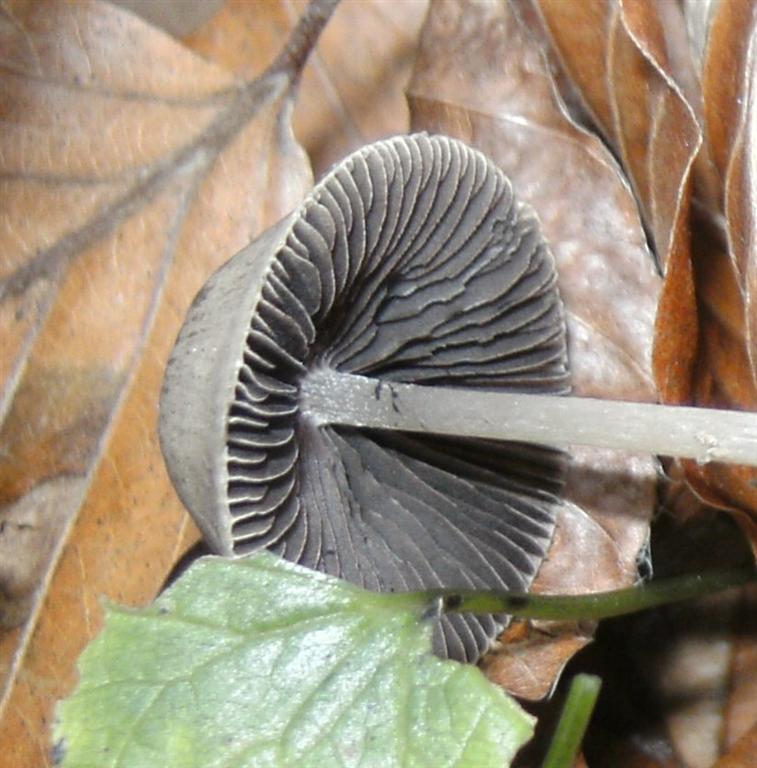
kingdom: Fungi
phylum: Basidiomycota
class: Agaricomycetes
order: Agaricales
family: Psathyrellaceae
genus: Psathyrella
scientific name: Psathyrella pseudogracilis
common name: slank mørkhat
